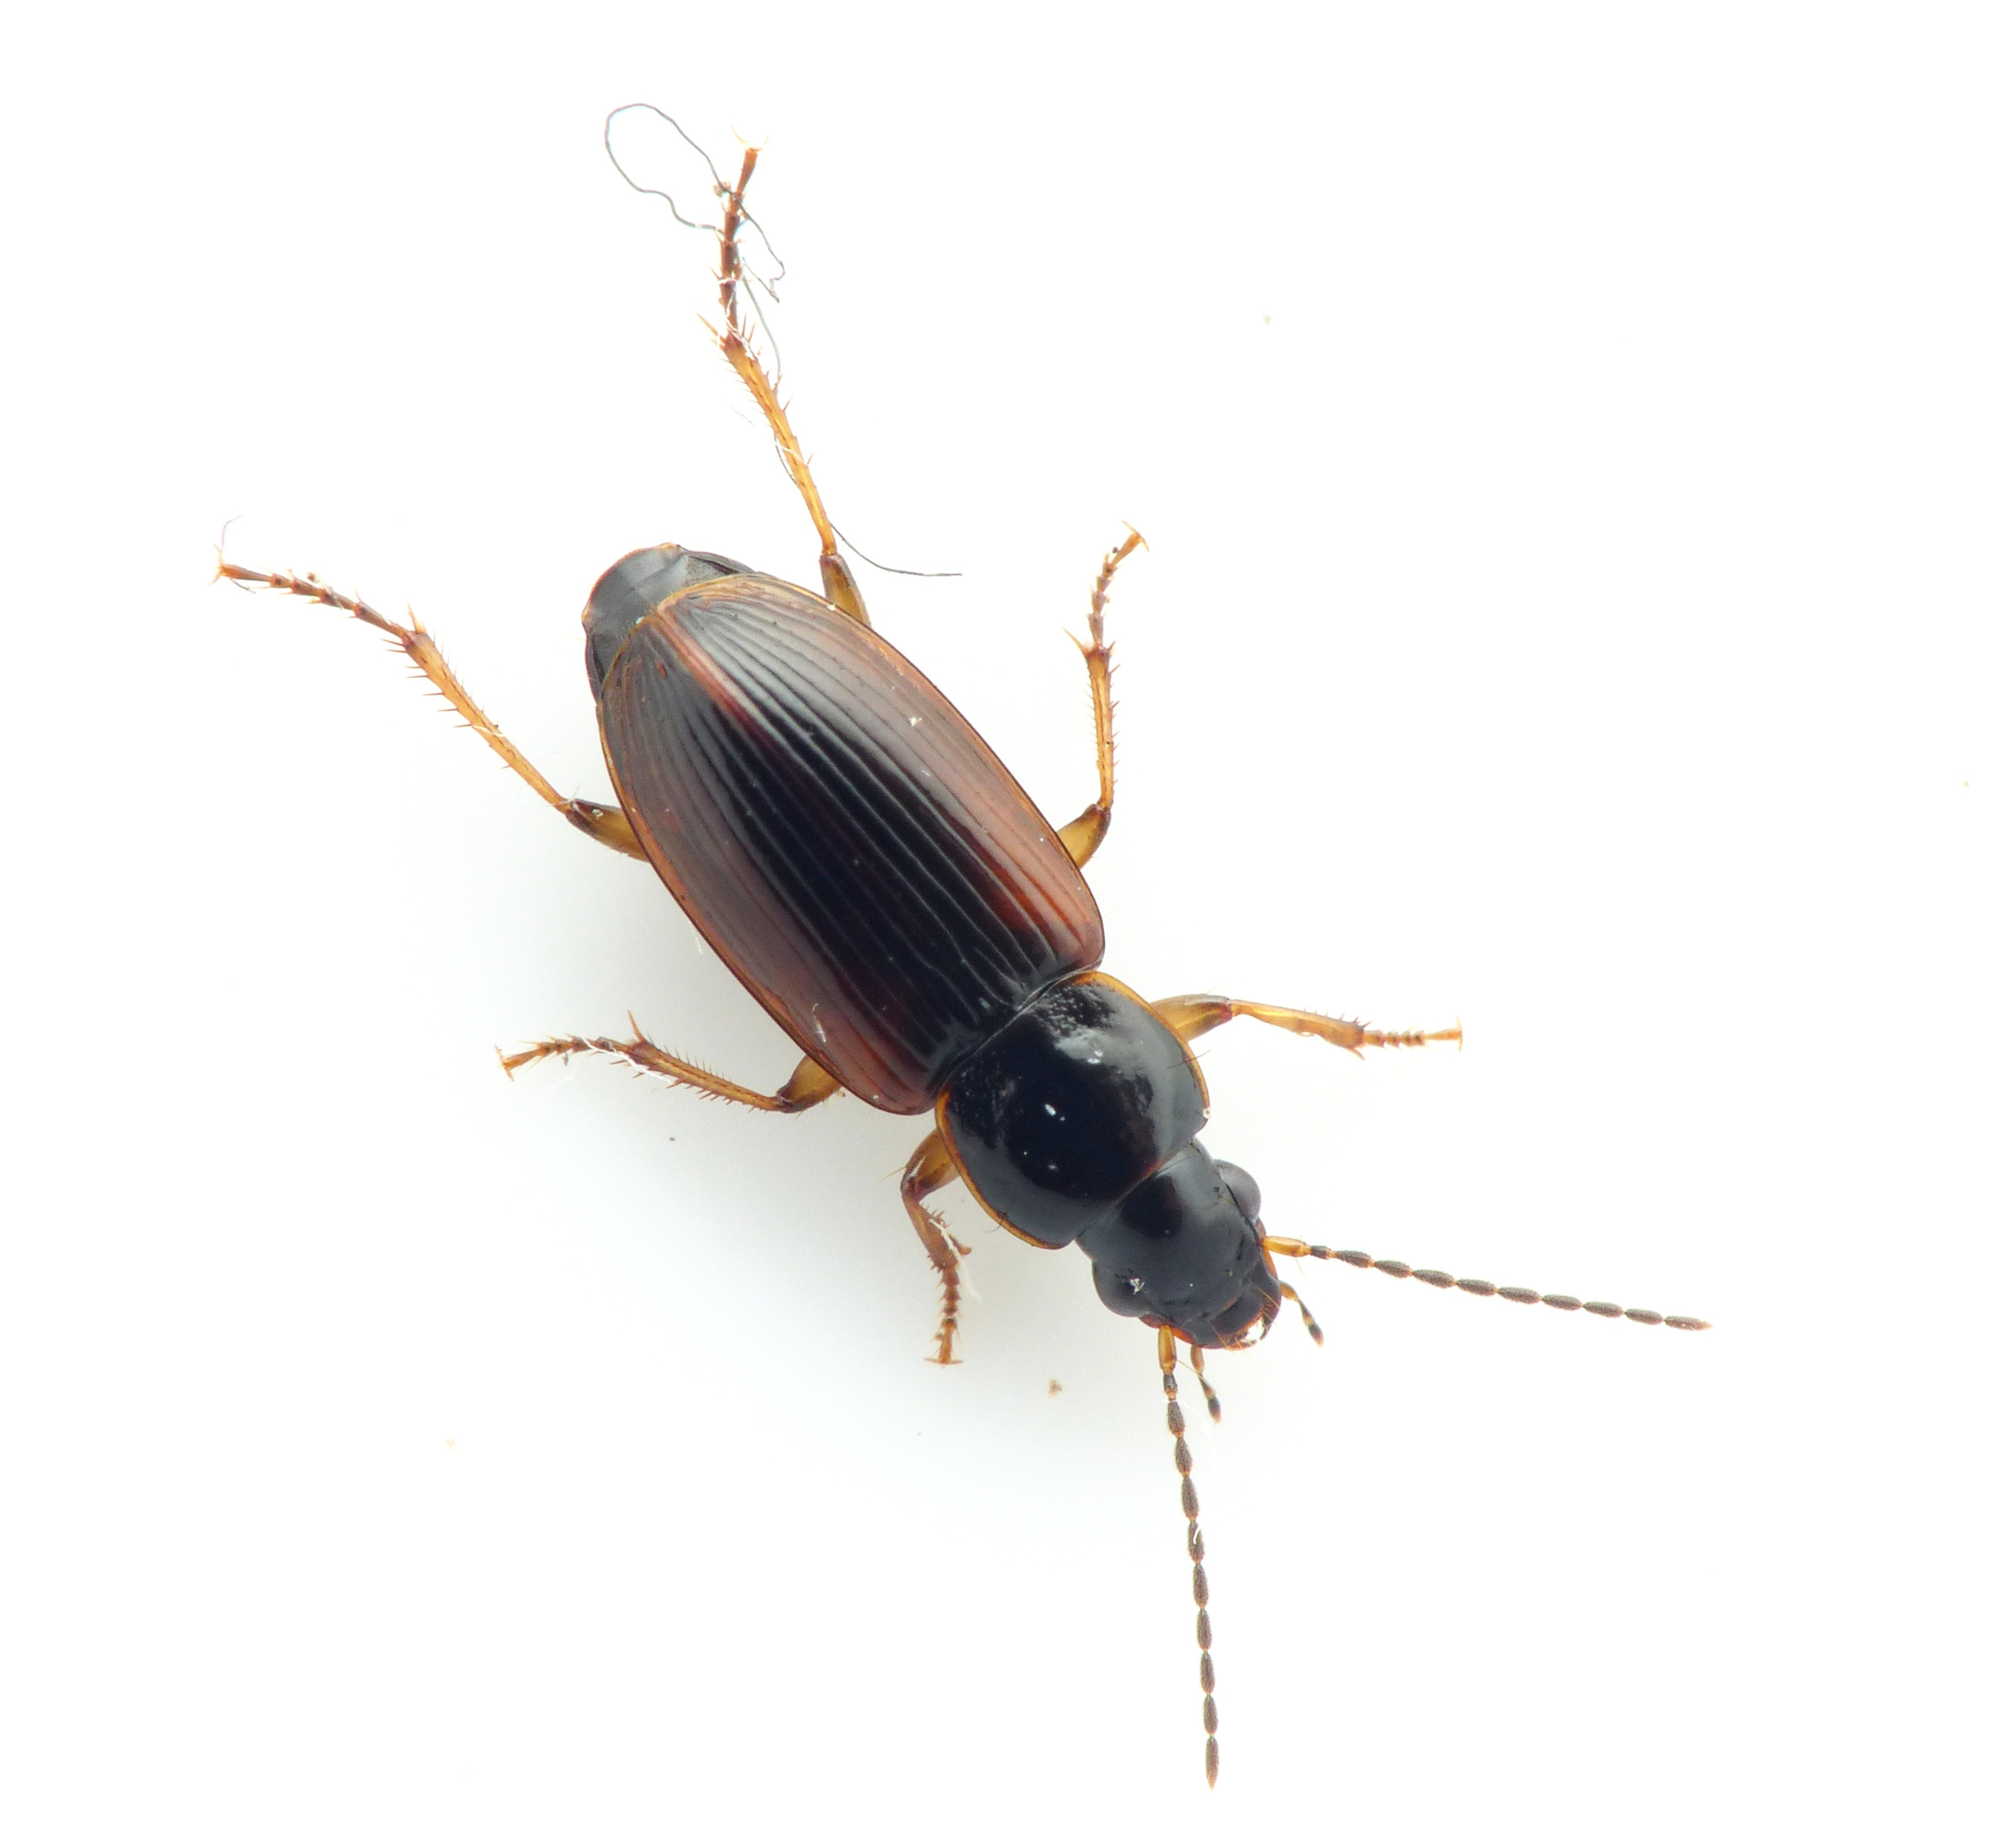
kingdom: Animalia
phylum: Arthropoda
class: Insecta
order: Coleoptera
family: Carabidae
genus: Stenolophus
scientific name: Stenolophus mixtus
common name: Mørk damløber
